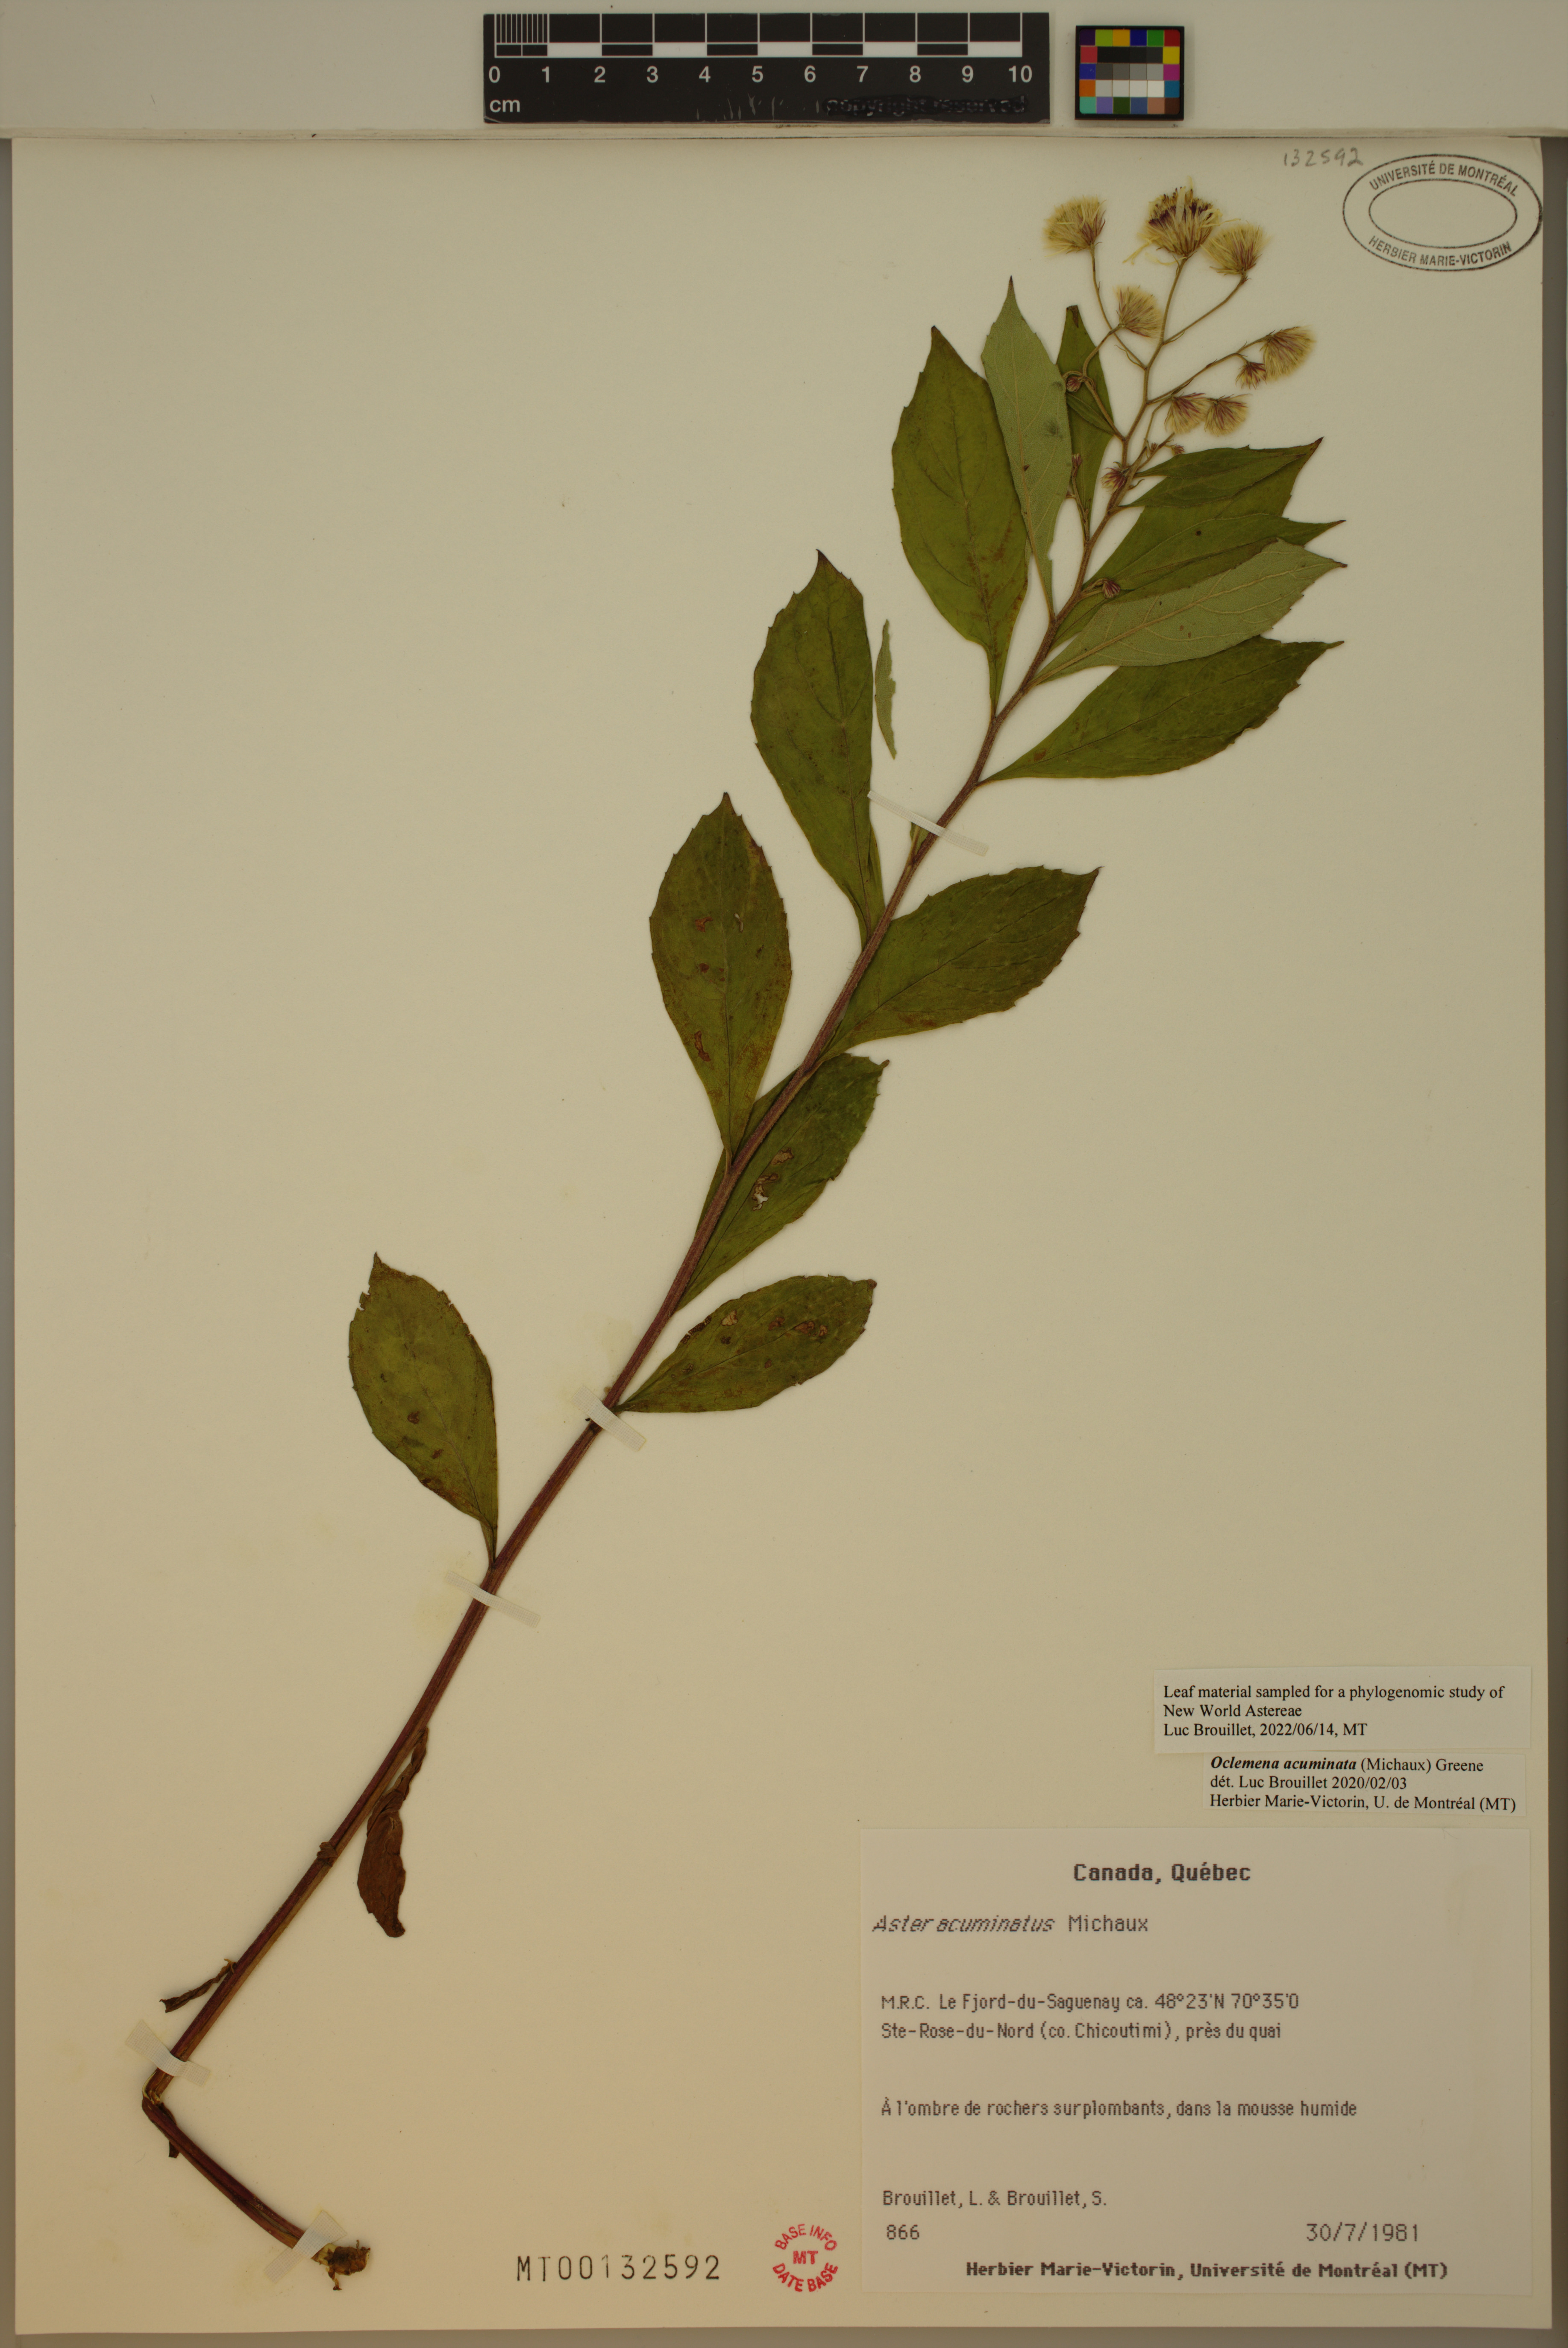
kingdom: Plantae
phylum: Tracheophyta
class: Magnoliopsida
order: Asterales
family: Asteraceae
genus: Oclemena
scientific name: Oclemena acuminata
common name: Mountain aster
